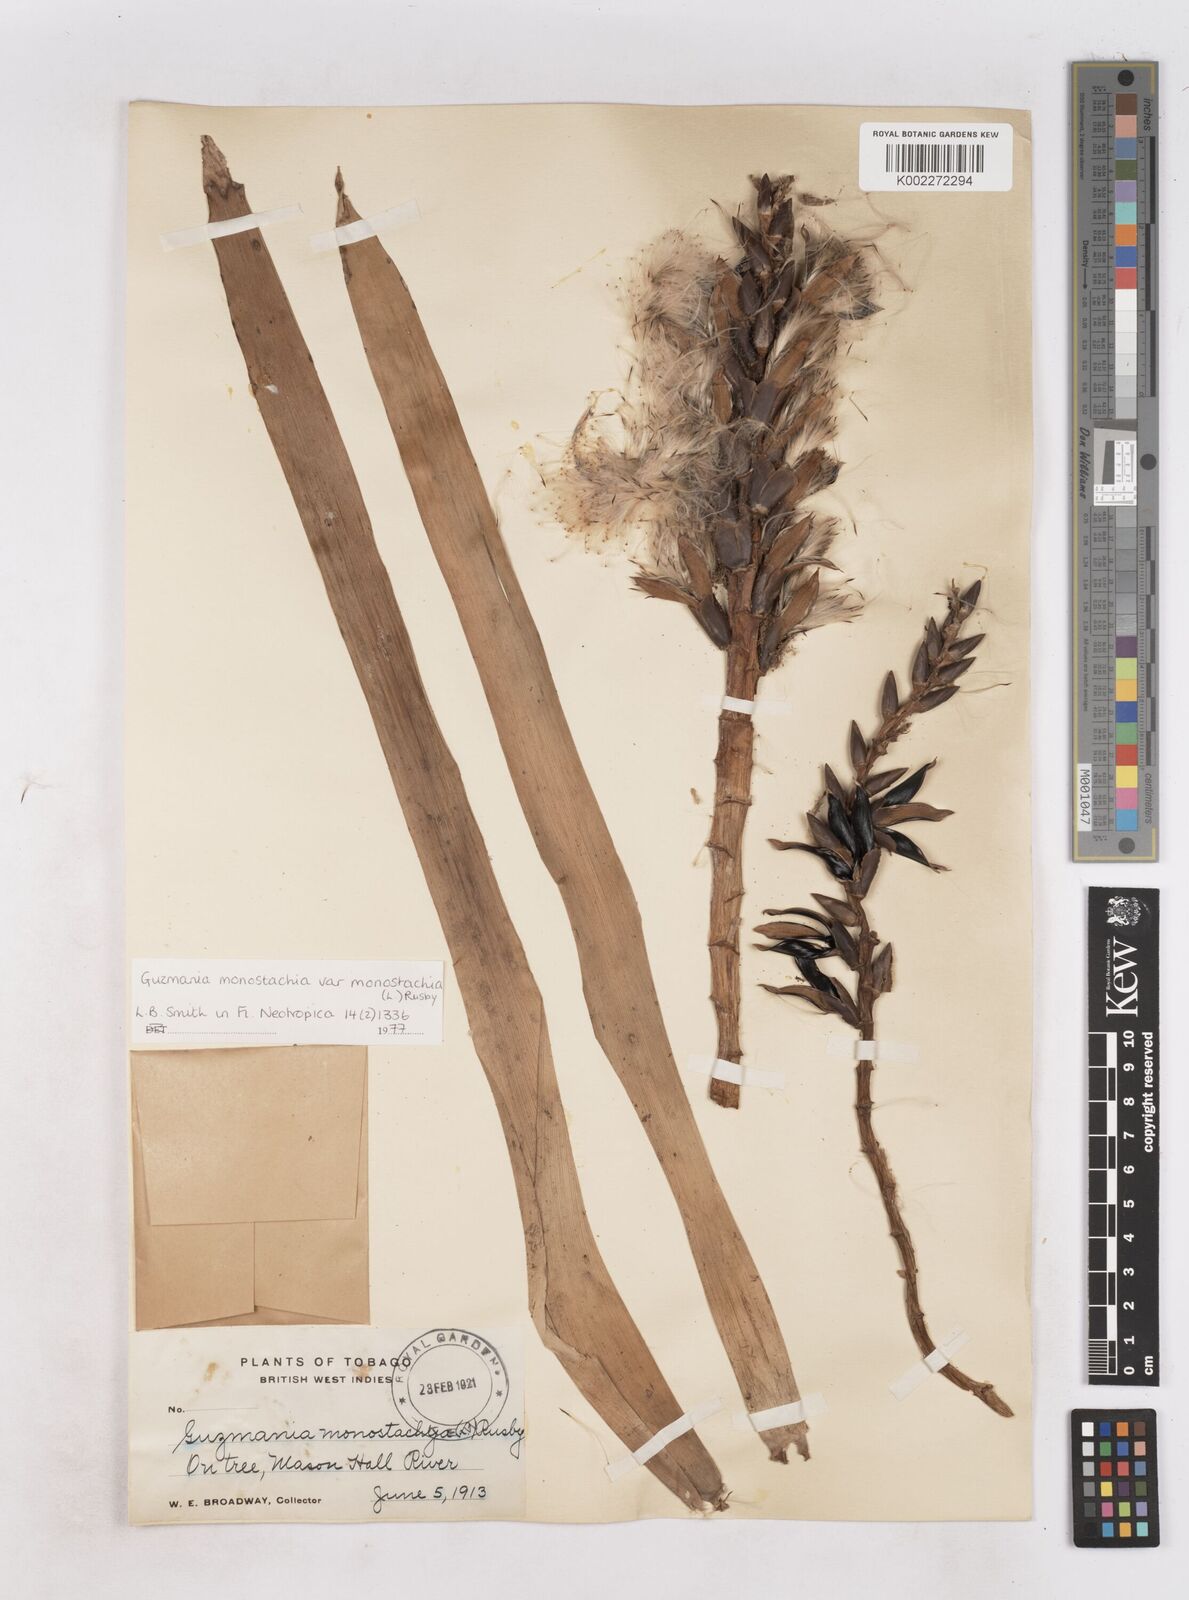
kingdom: Plantae
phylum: Tracheophyta
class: Liliopsida
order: Poales
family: Bromeliaceae
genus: Guzmania
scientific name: Guzmania monostachia
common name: West indian tufted airplant
